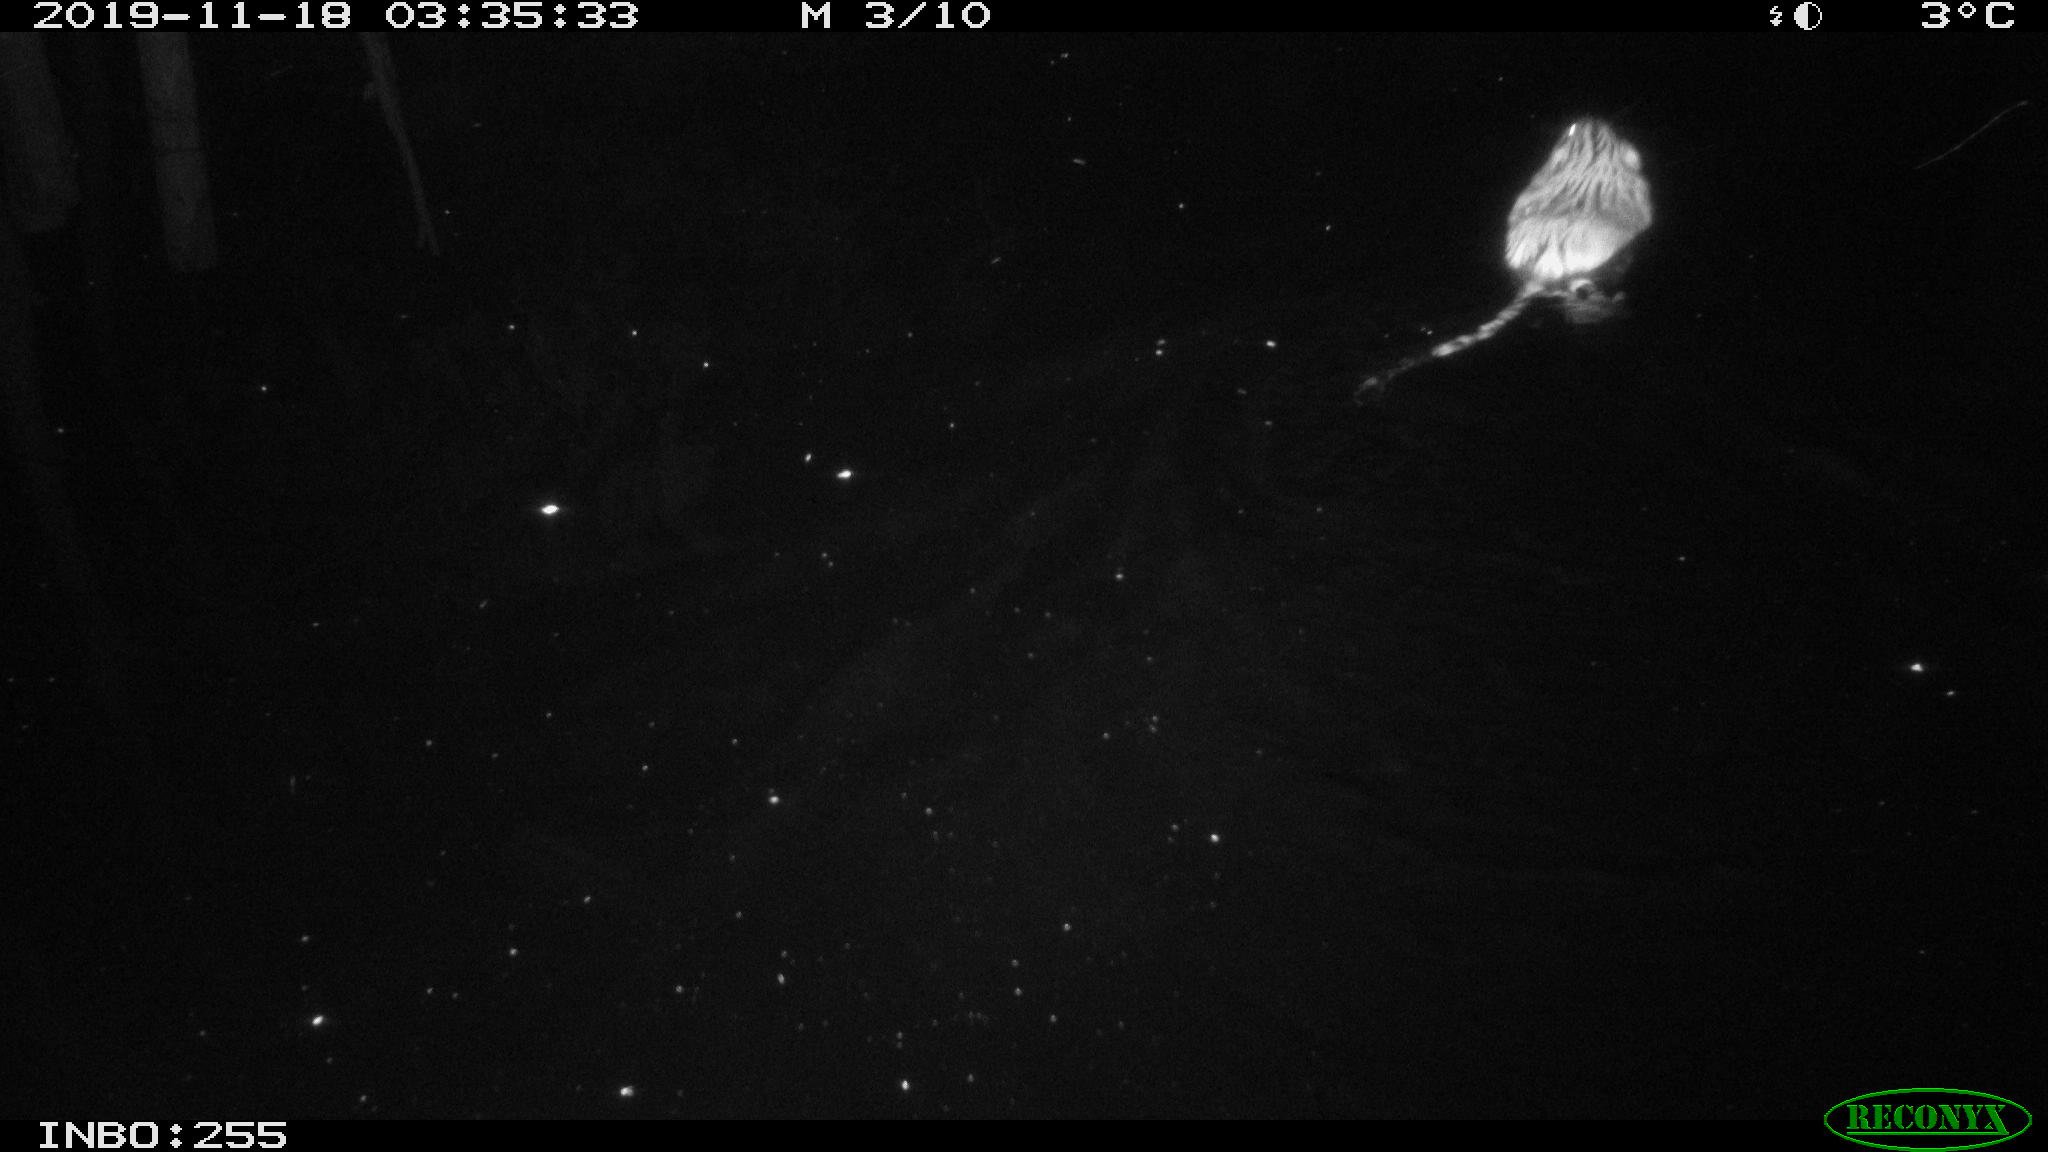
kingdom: Animalia
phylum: Chordata
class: Mammalia
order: Rodentia
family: Cricetidae
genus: Ondatra
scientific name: Ondatra zibethicus
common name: Muskrat
